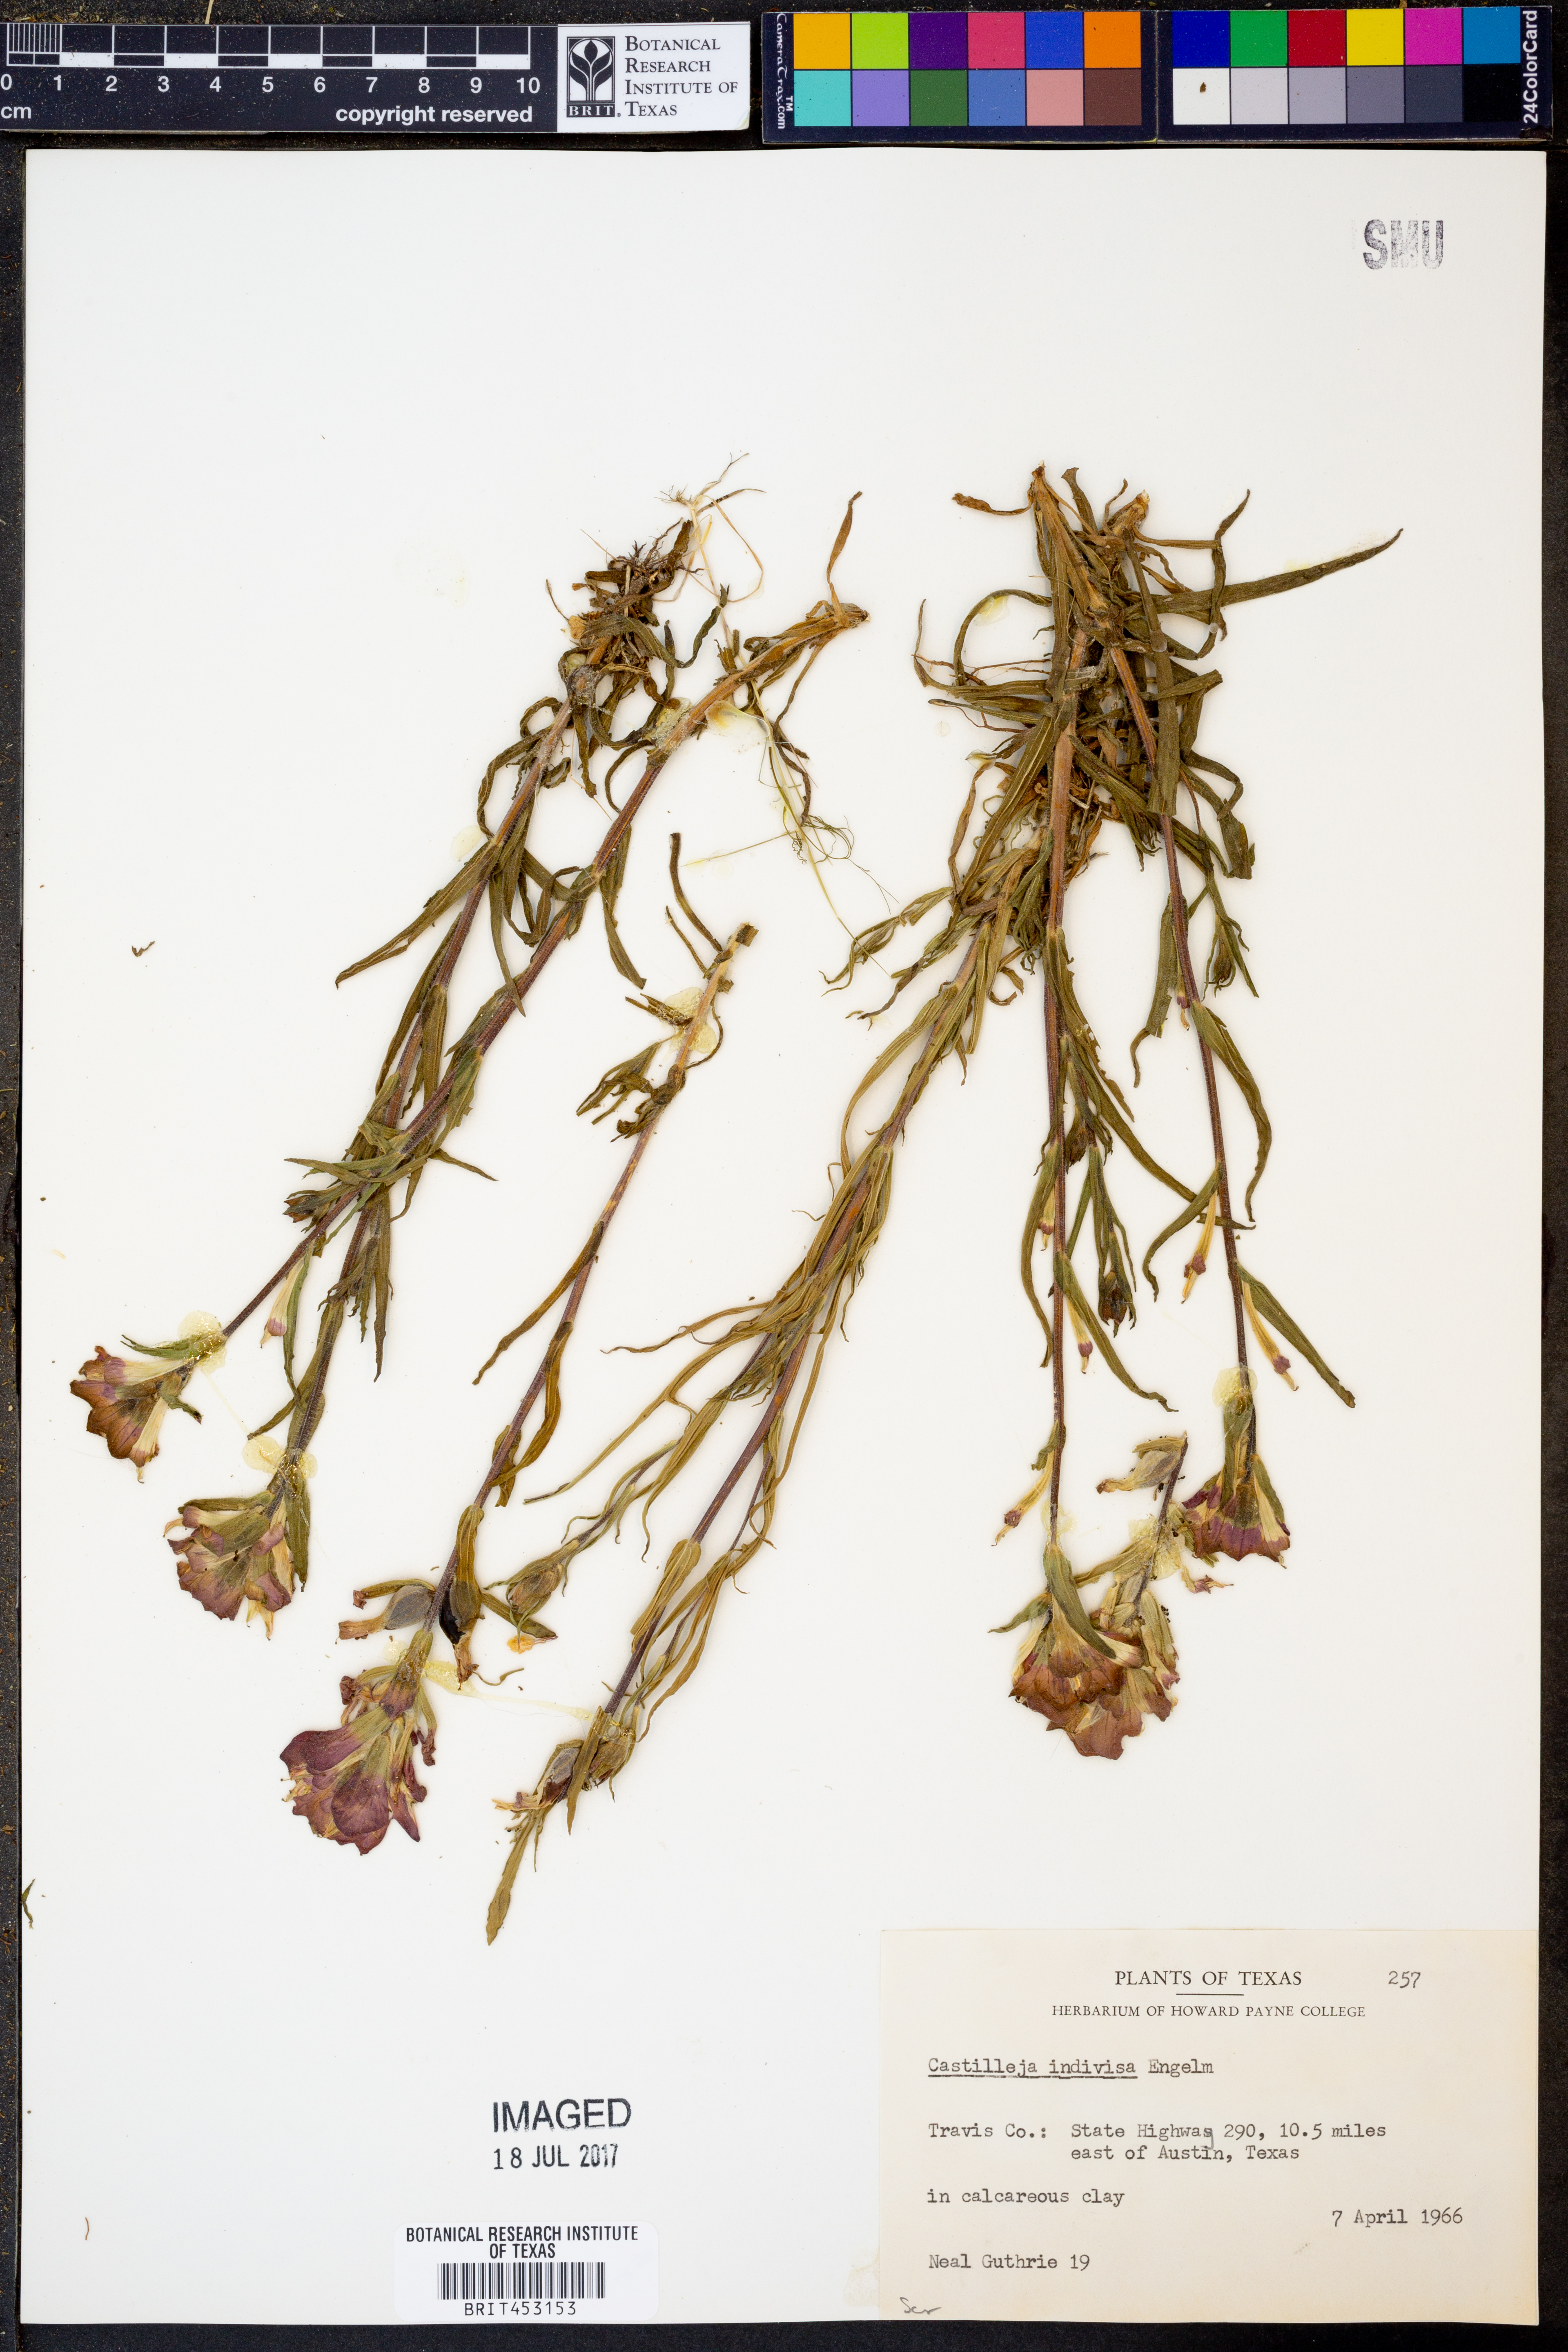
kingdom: Plantae
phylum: Tracheophyta
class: Magnoliopsida
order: Lamiales
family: Orobanchaceae
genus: Castilleja
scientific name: Castilleja indivisa
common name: Texas paintbrush
